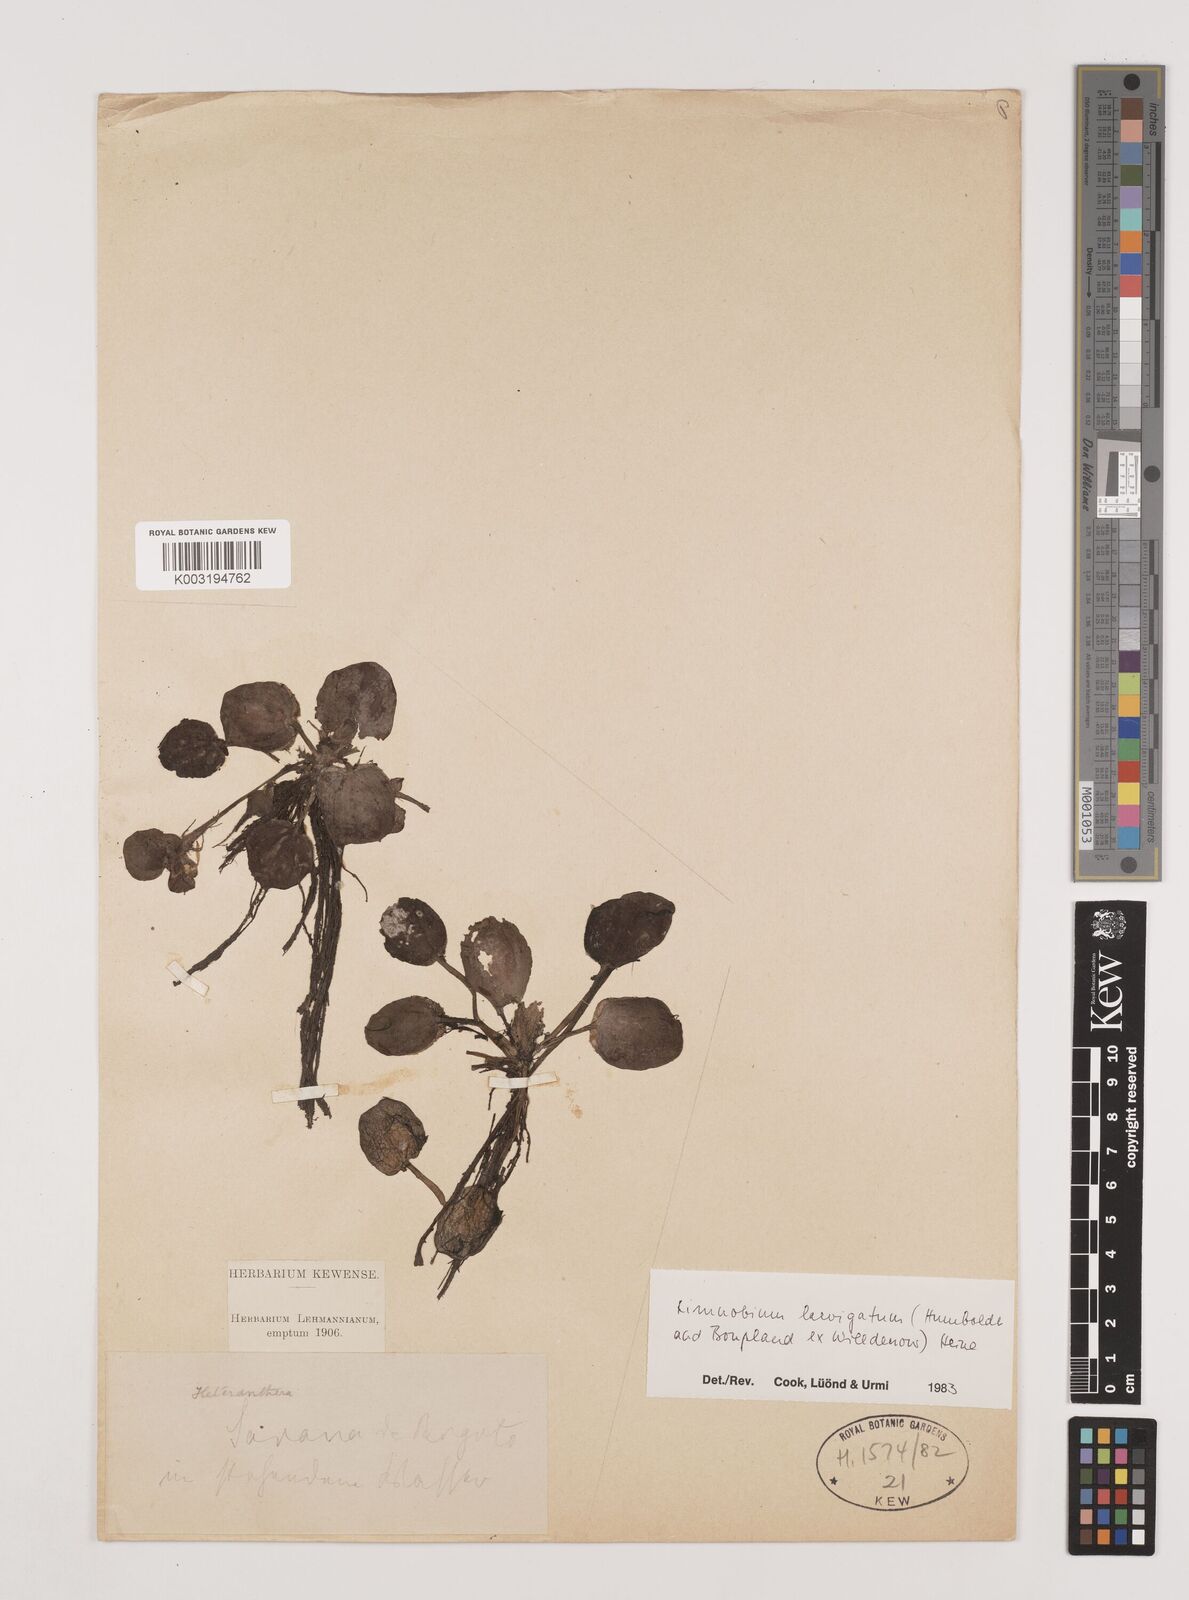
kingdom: Plantae
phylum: Tracheophyta
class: Liliopsida
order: Alismatales
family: Hydrocharitaceae
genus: Hydrocharis
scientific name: Hydrocharis laevigata
